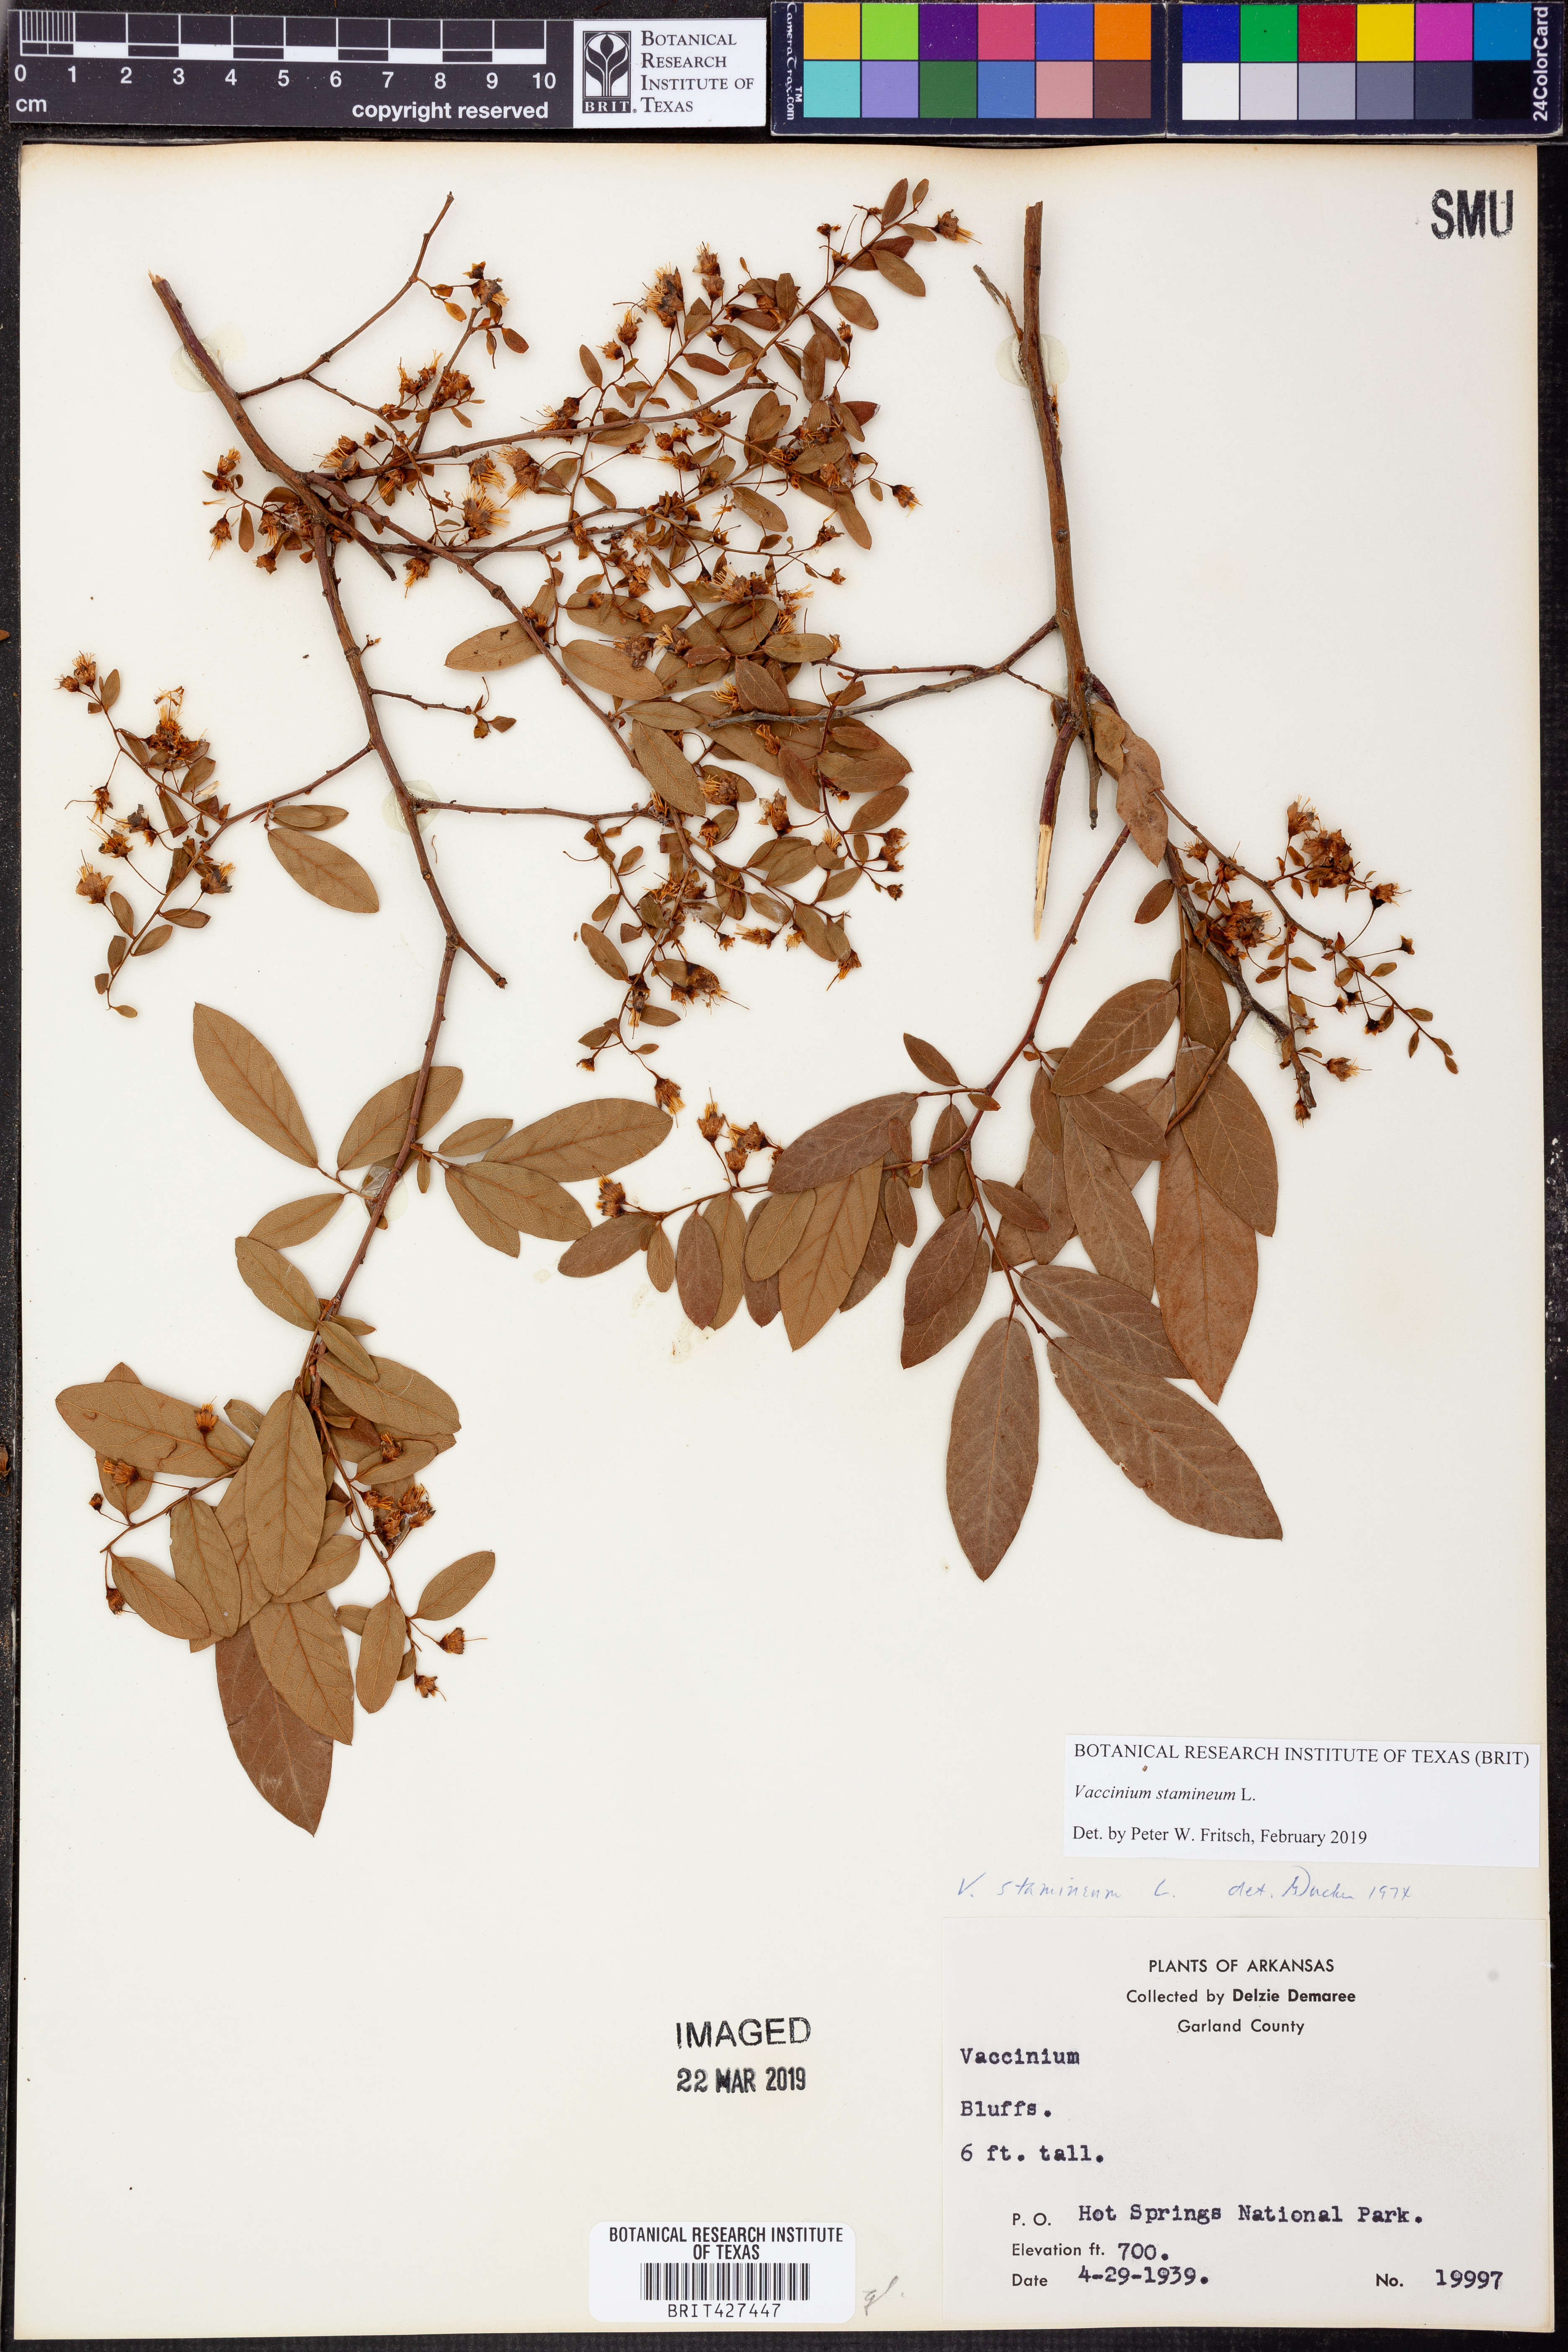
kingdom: Plantae
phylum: Tracheophyta
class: Magnoliopsida
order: Ericales
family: Ericaceae
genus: Vaccinium
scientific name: Vaccinium stamineum
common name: Deerberry
